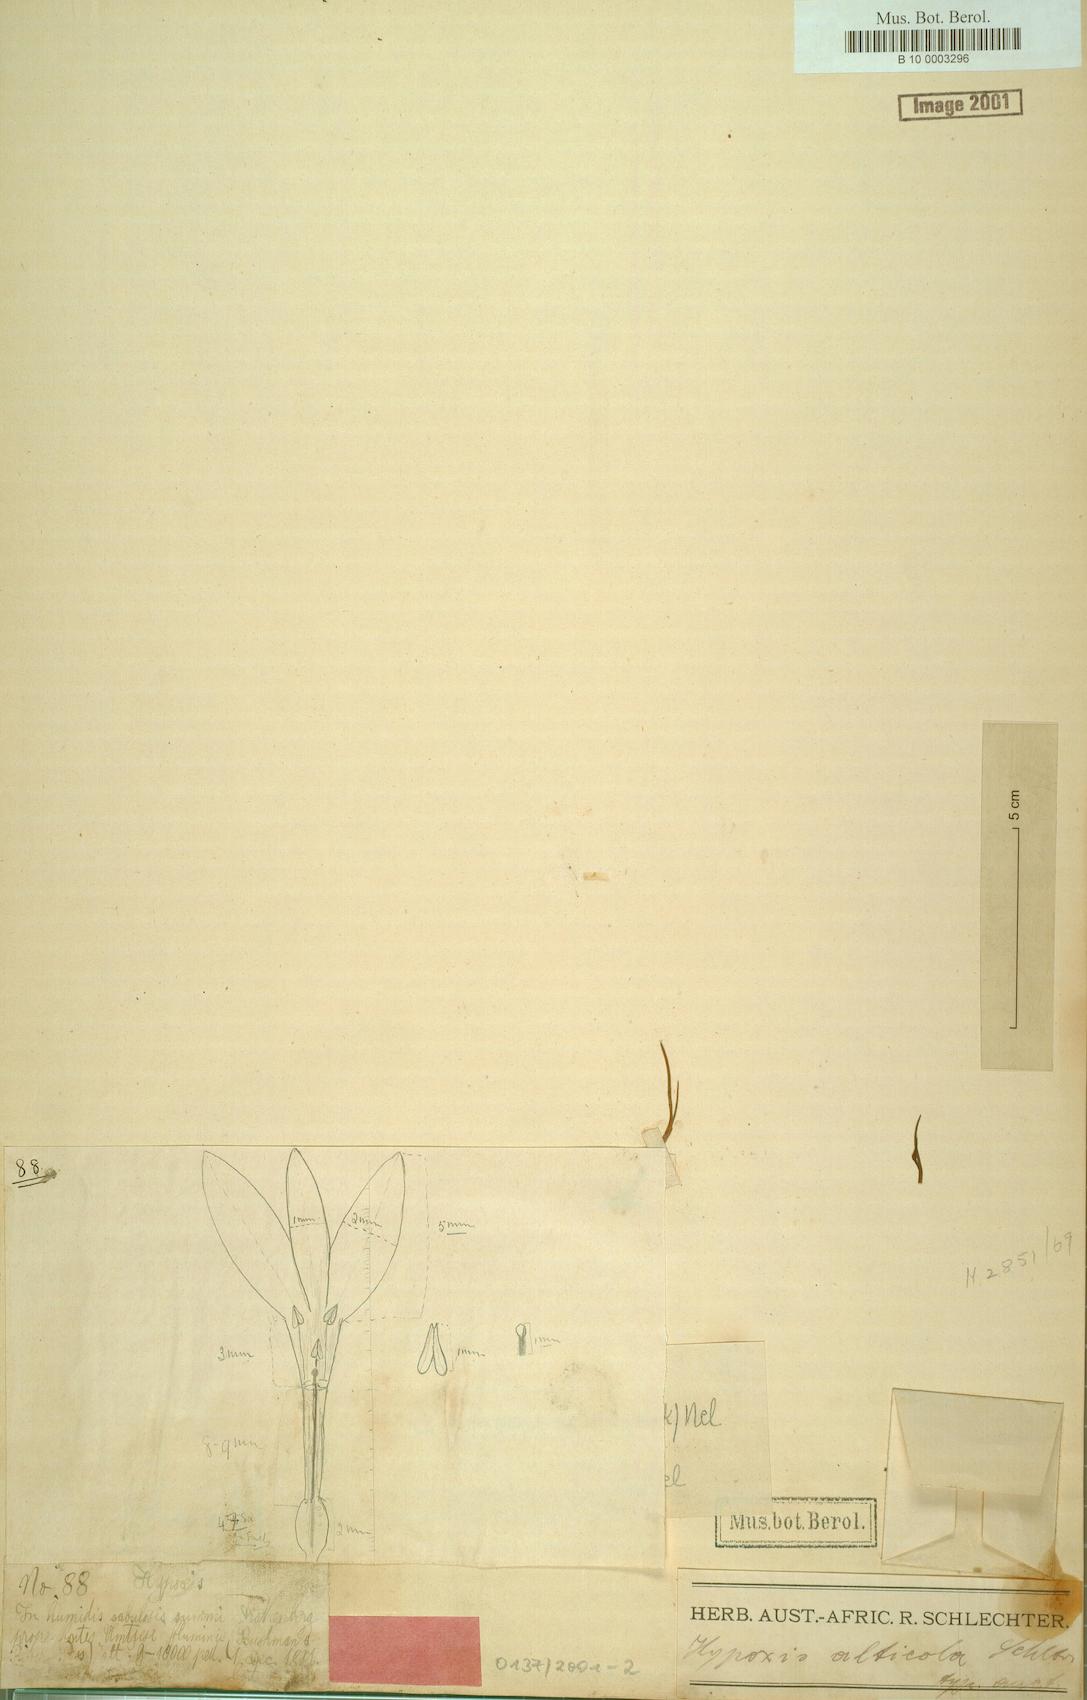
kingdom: Plantae
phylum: Tracheophyta
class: Liliopsida
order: Asparagales
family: Hypoxidaceae
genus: Hypoxis
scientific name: Hypoxis
